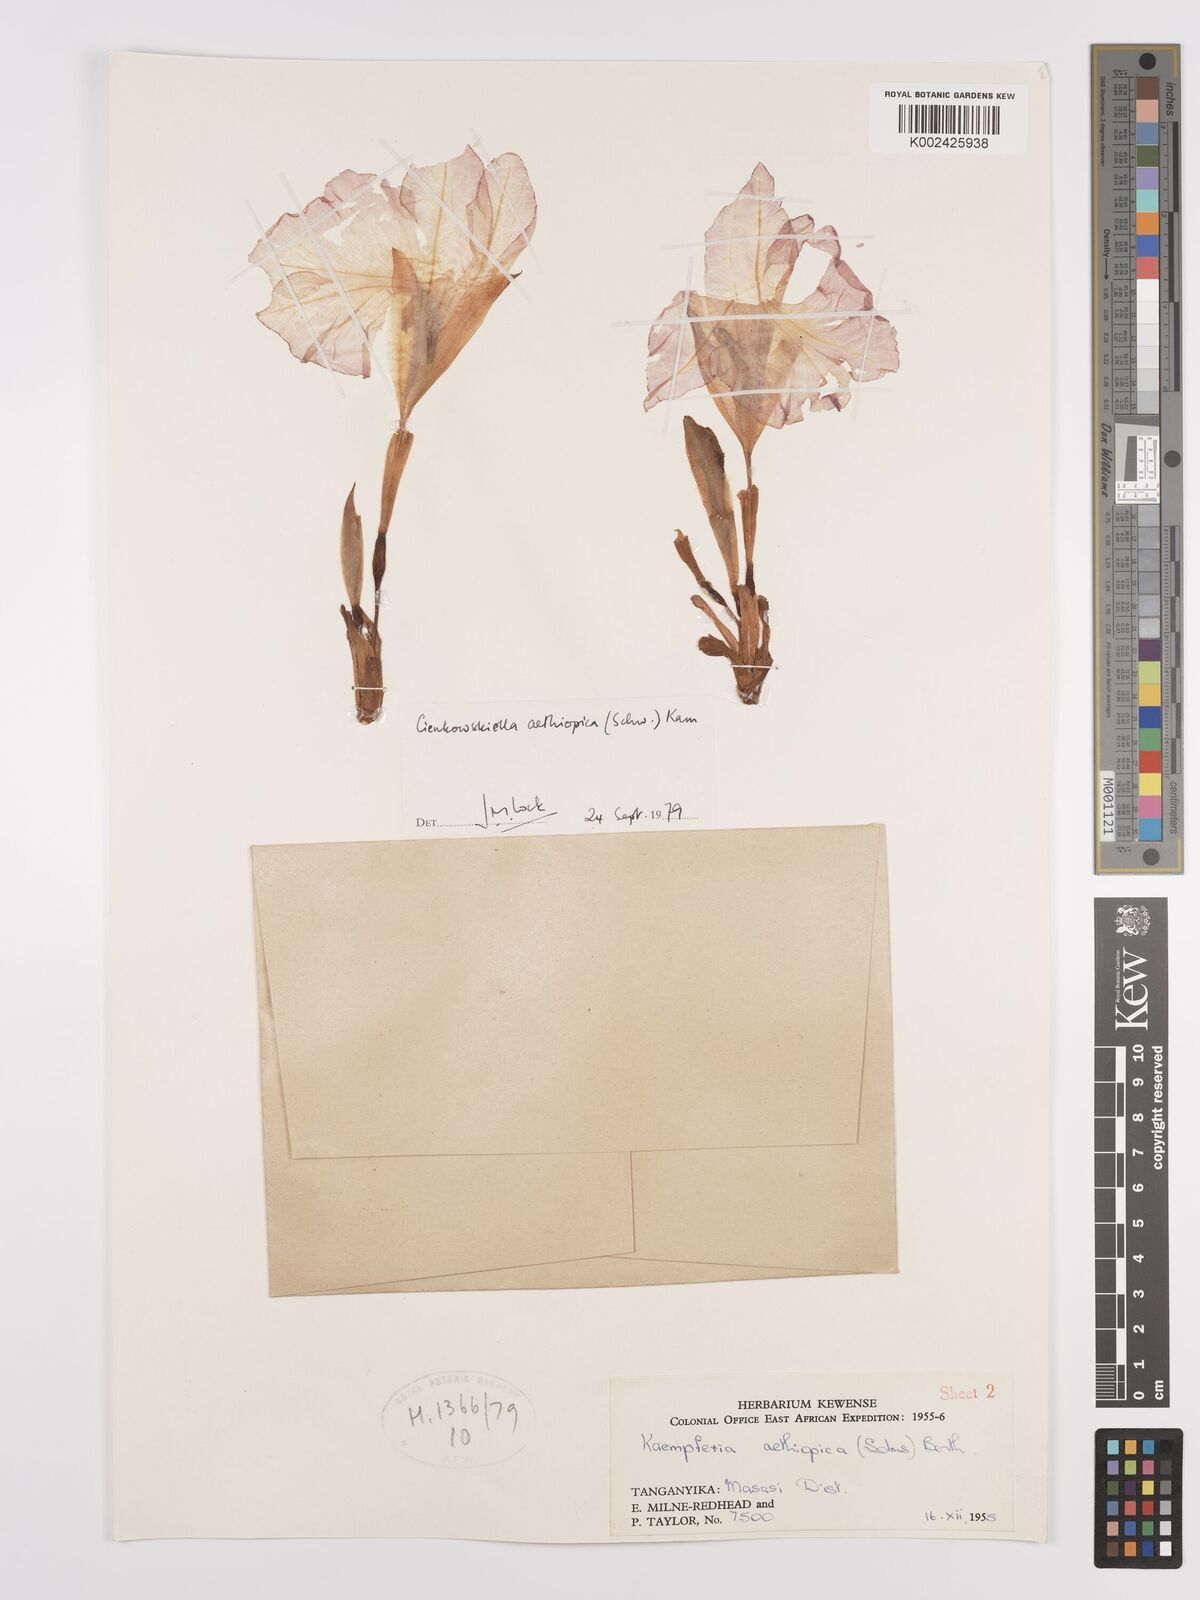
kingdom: Plantae
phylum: Tracheophyta
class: Liliopsida
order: Zingiberales
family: Zingiberaceae
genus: Siphonochilus
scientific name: Siphonochilus aethiopicus
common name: African-ginger
